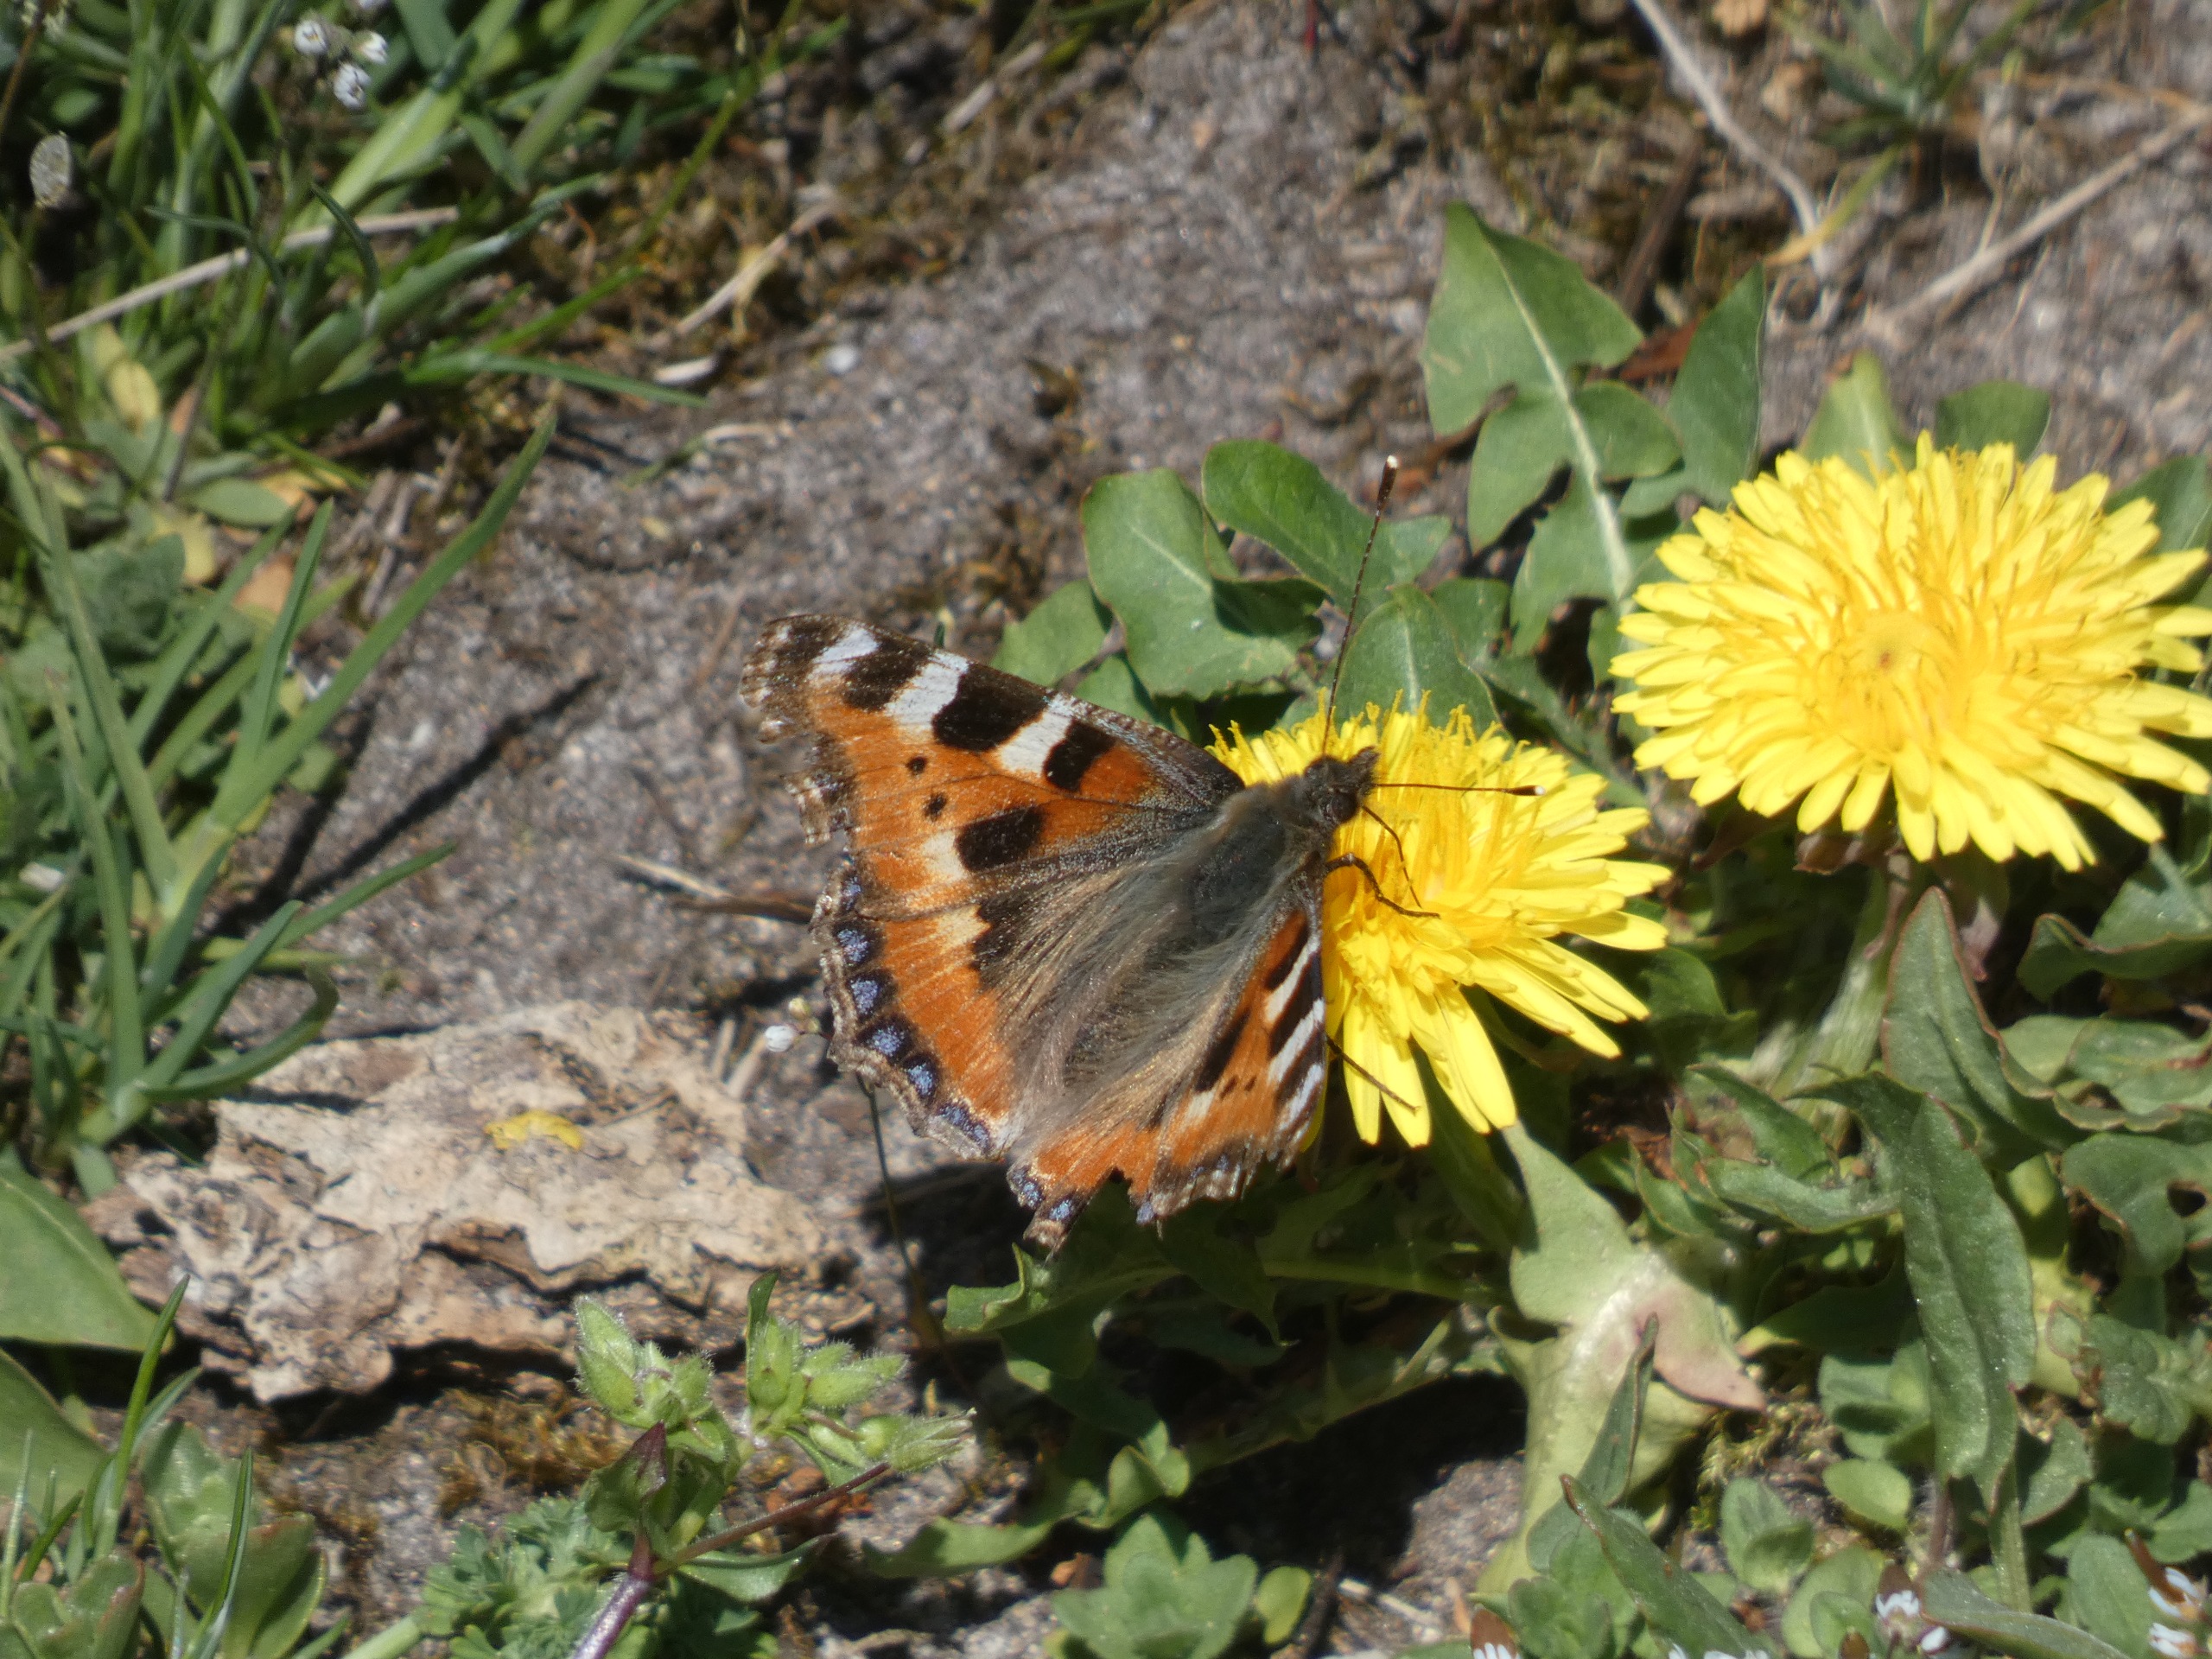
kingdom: Animalia
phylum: Arthropoda
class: Insecta
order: Lepidoptera
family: Nymphalidae
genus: Aglais
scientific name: Aglais urticae
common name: Nældens takvinge
